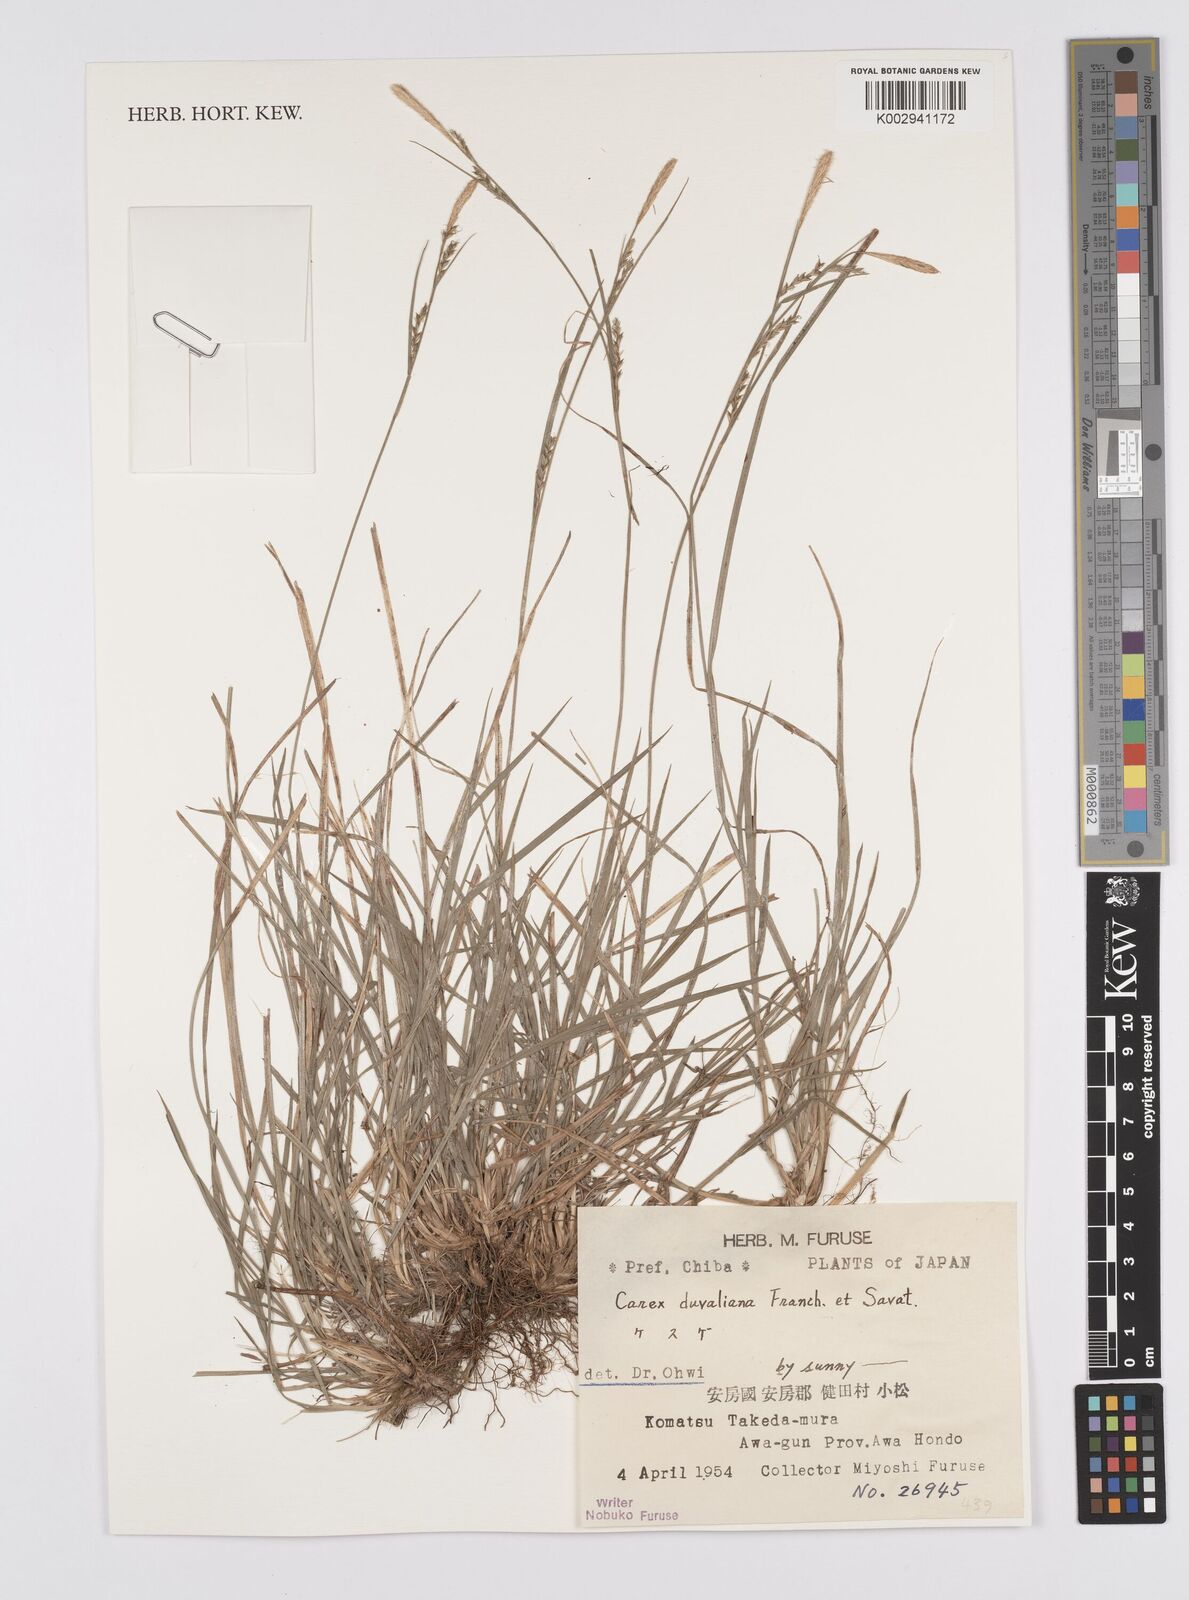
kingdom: Plantae
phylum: Tracheophyta
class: Liliopsida
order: Poales
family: Cyperaceae
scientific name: Cyperaceae
